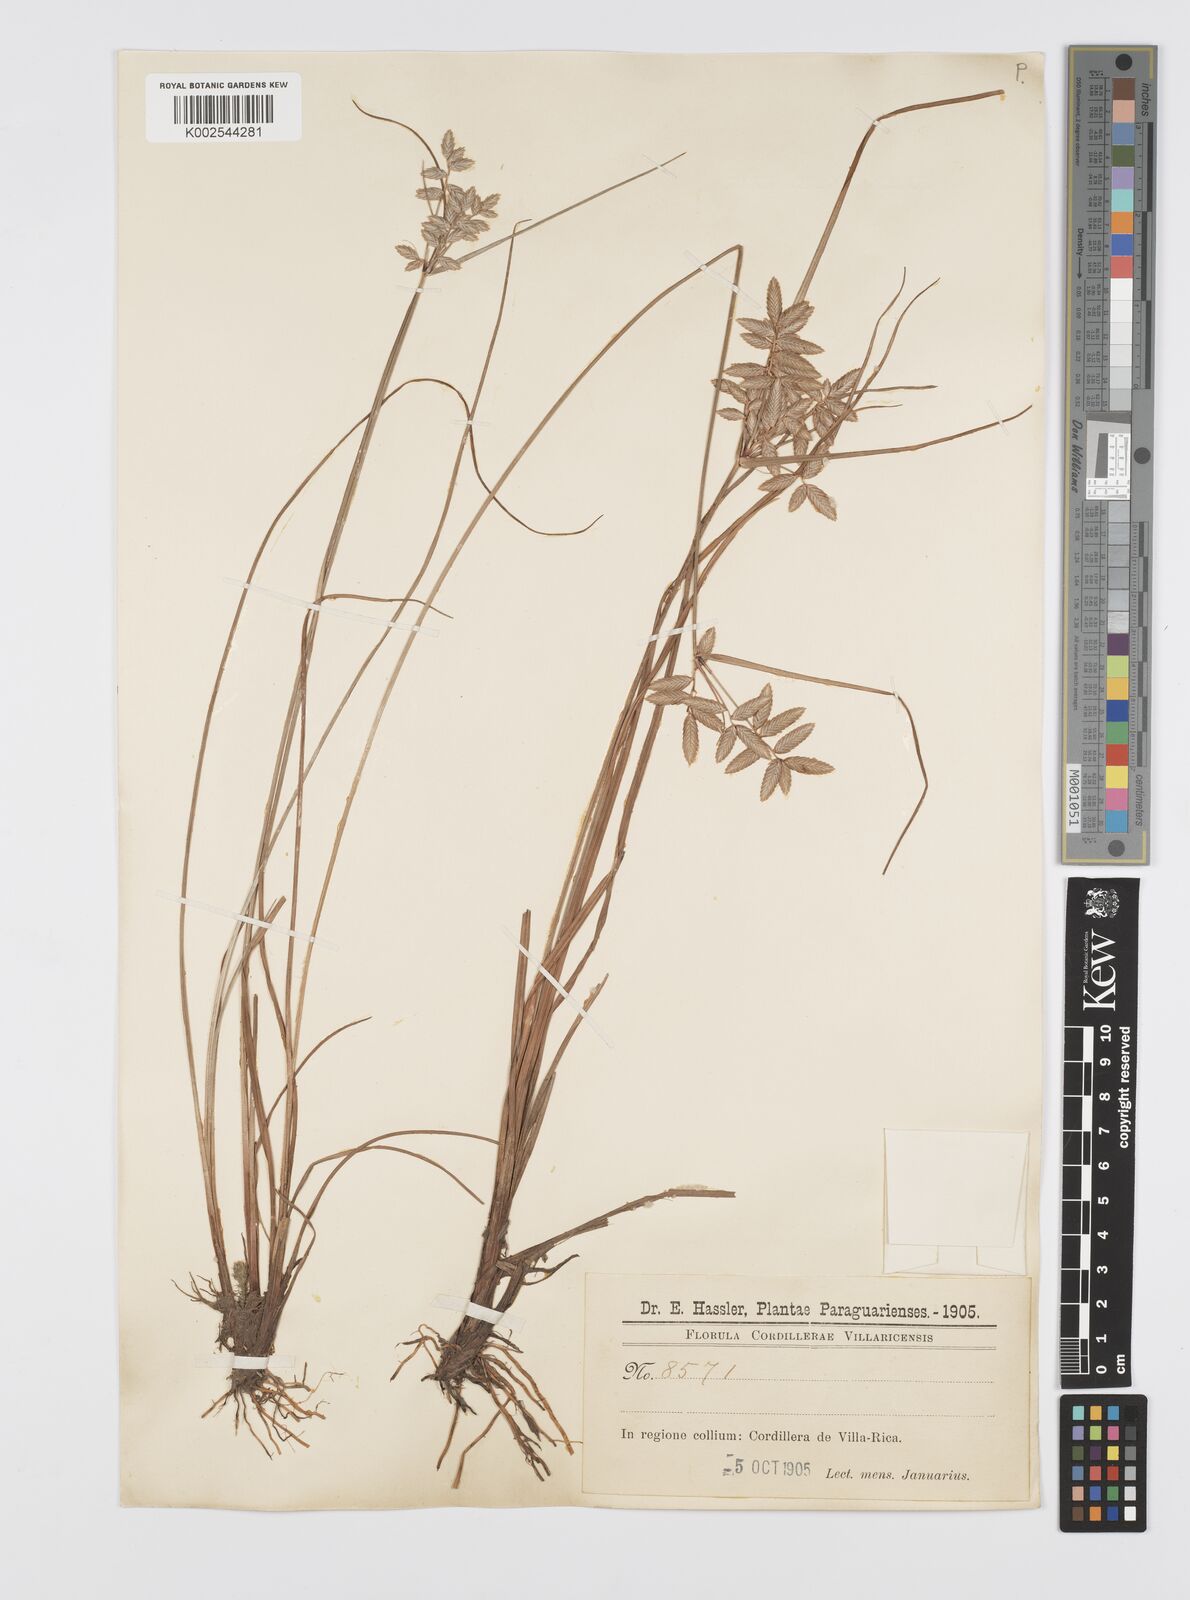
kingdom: Plantae
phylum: Tracheophyta
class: Liliopsida
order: Poales
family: Cyperaceae
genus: Cyperus
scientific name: Cyperus unioloides
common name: Uniola flatsedge
